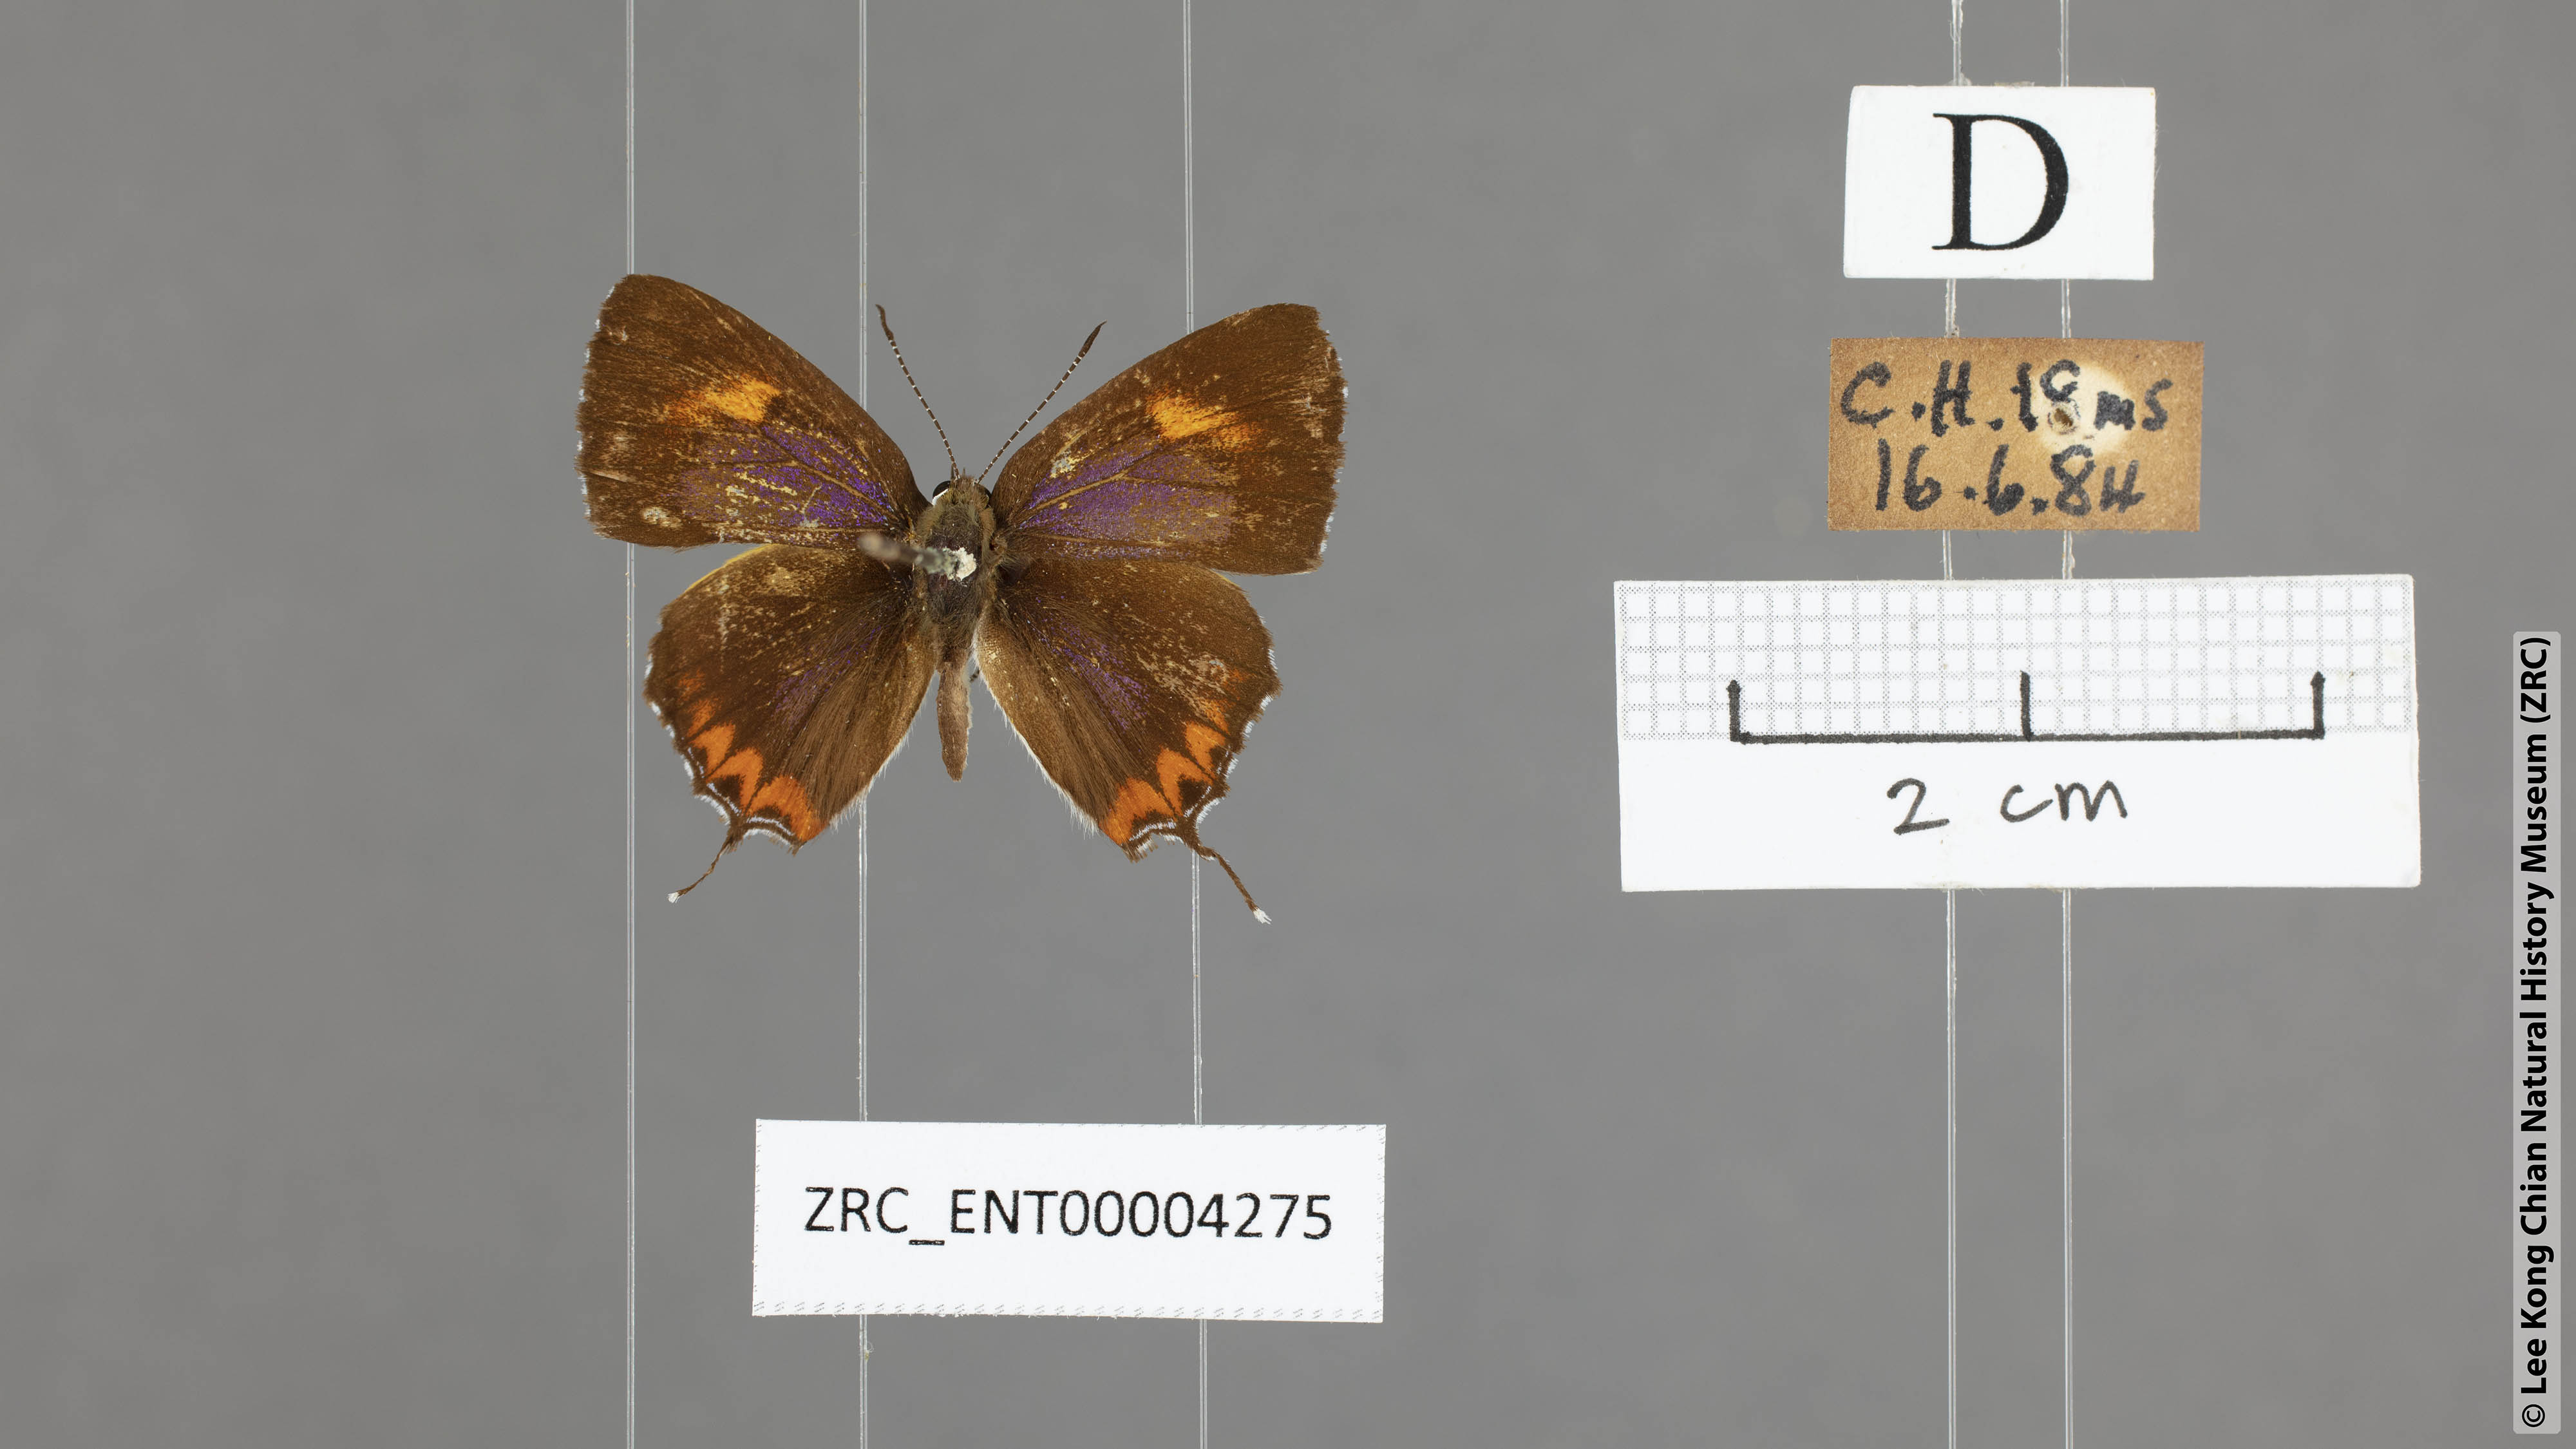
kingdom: Animalia
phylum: Arthropoda
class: Insecta
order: Lepidoptera
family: Lycaenidae
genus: Heliophorus
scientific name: Heliophorus epicles
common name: Purple sapphire
